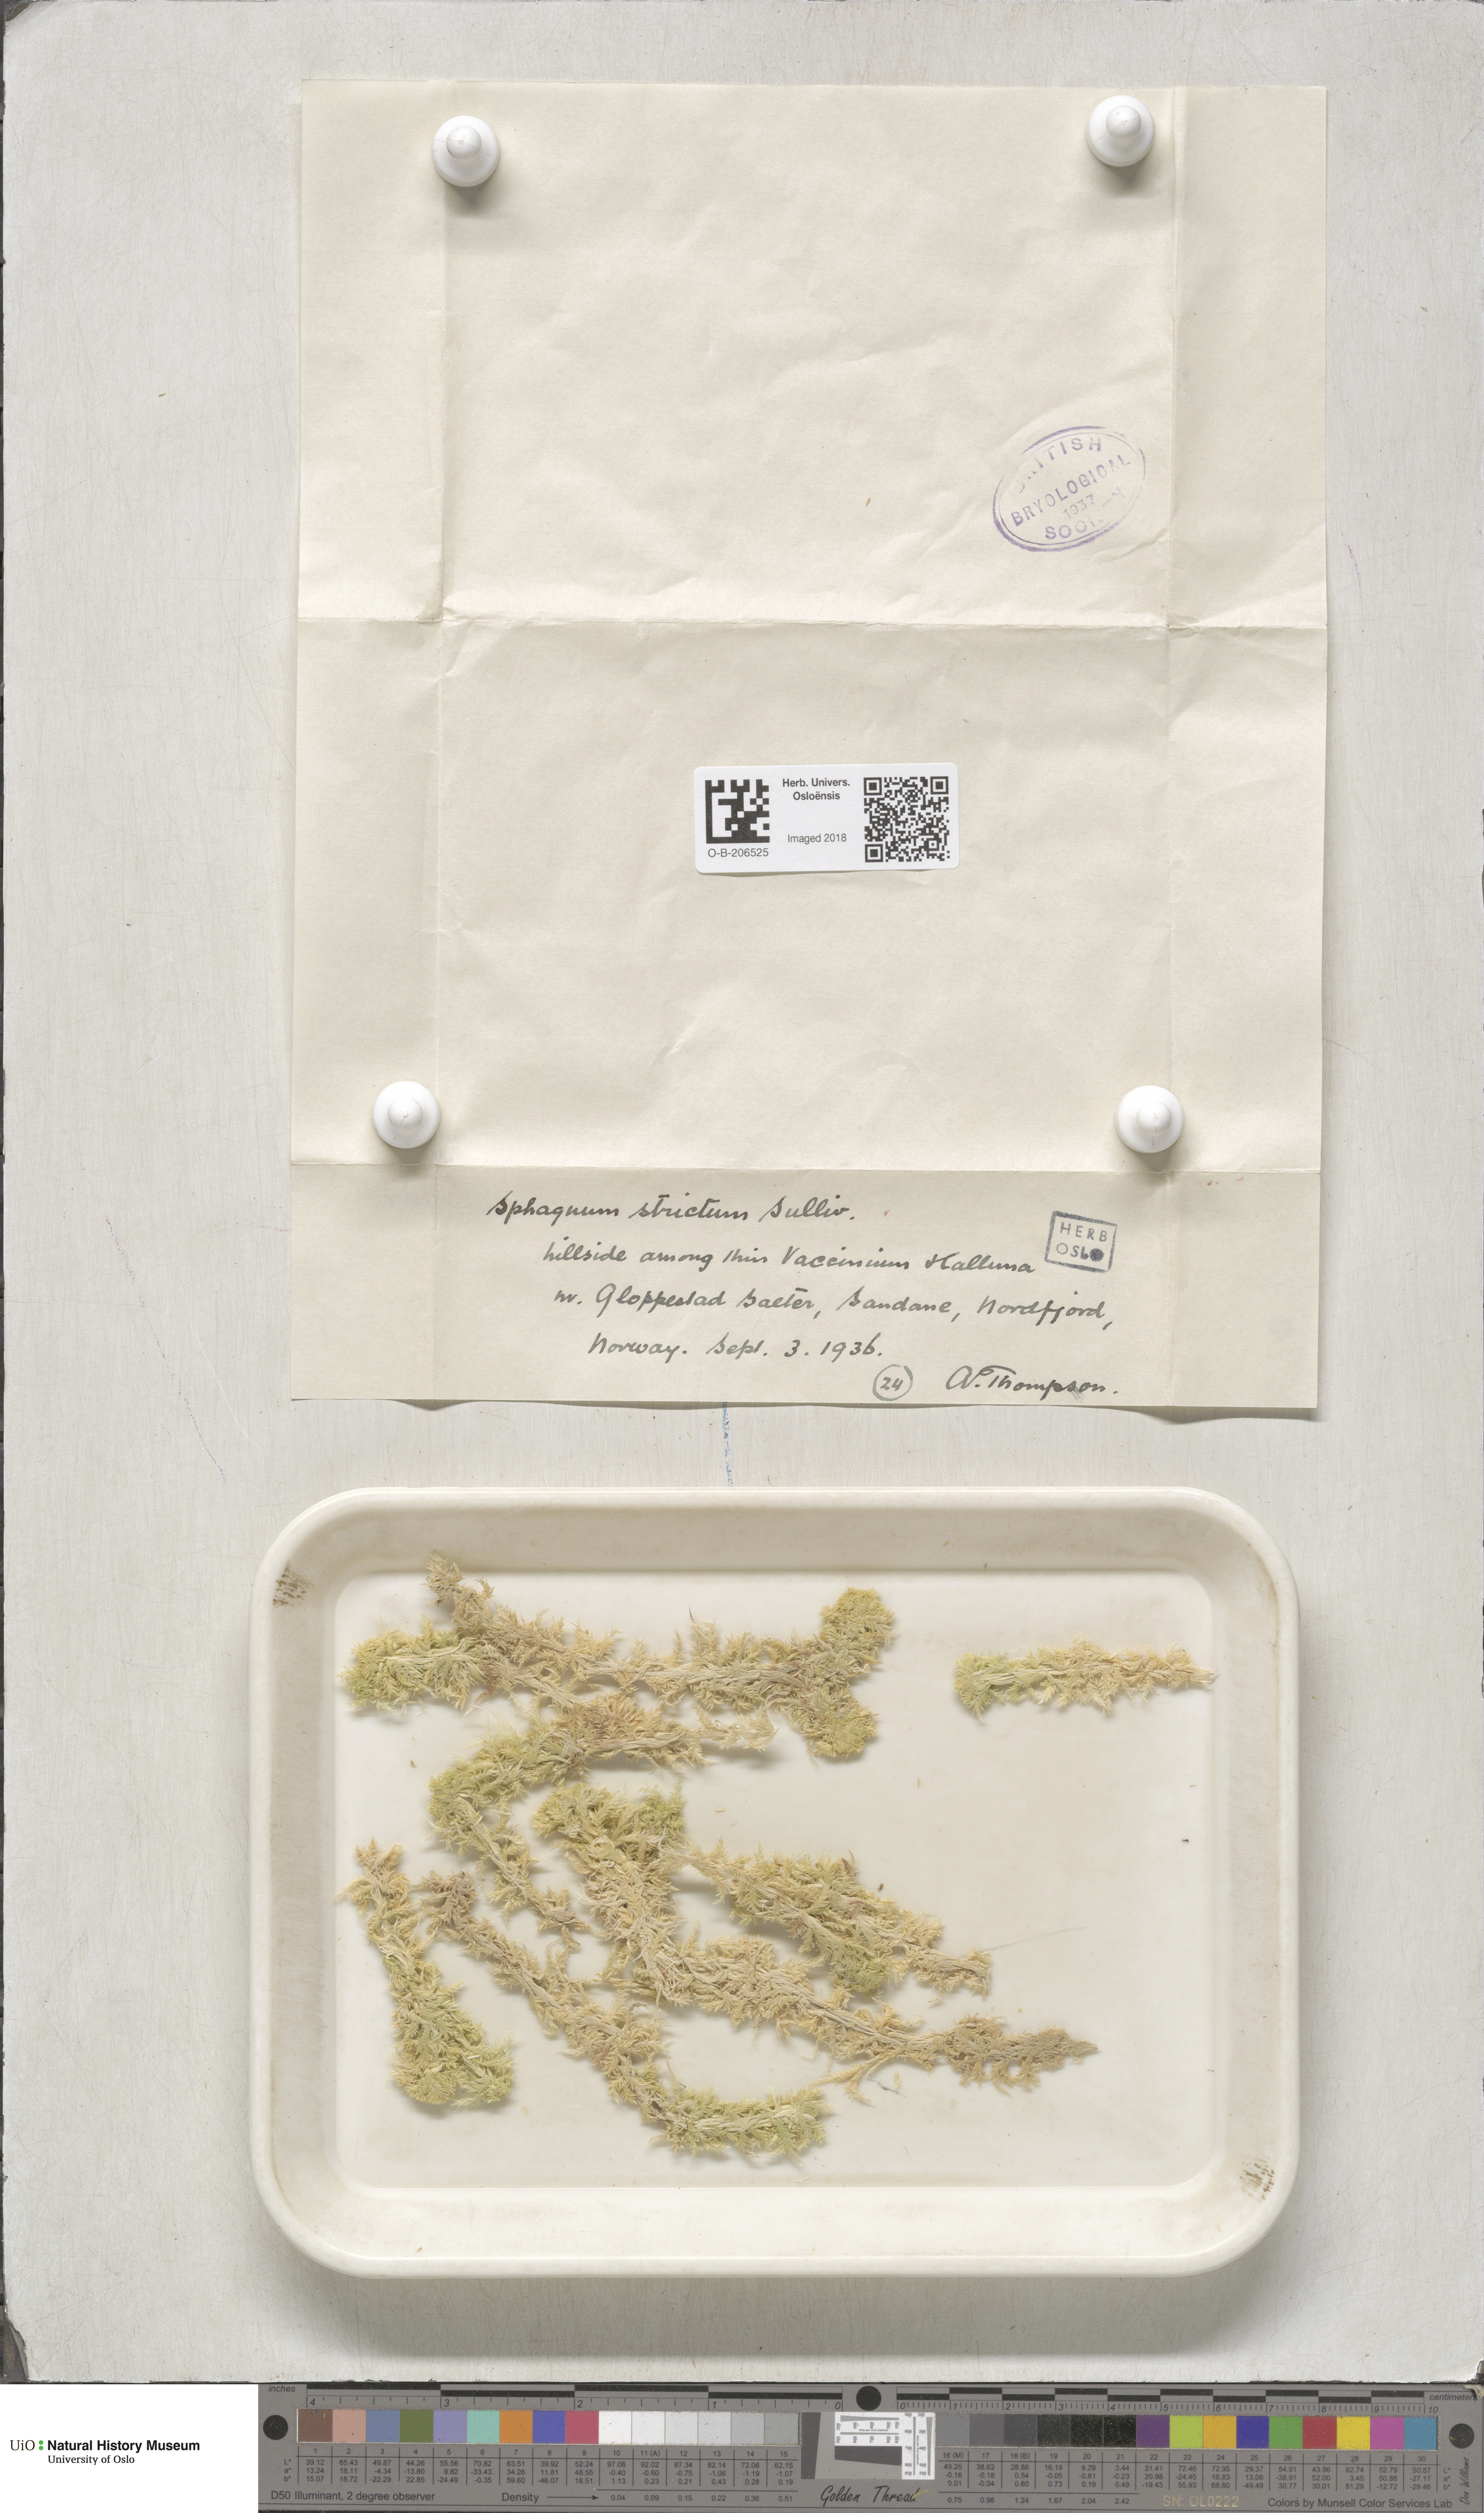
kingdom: Plantae
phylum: Bryophyta
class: Sphagnopsida
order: Sphagnales
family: Sphagnaceae
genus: Sphagnum
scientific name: Sphagnum strictum
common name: Pale bog-moss
